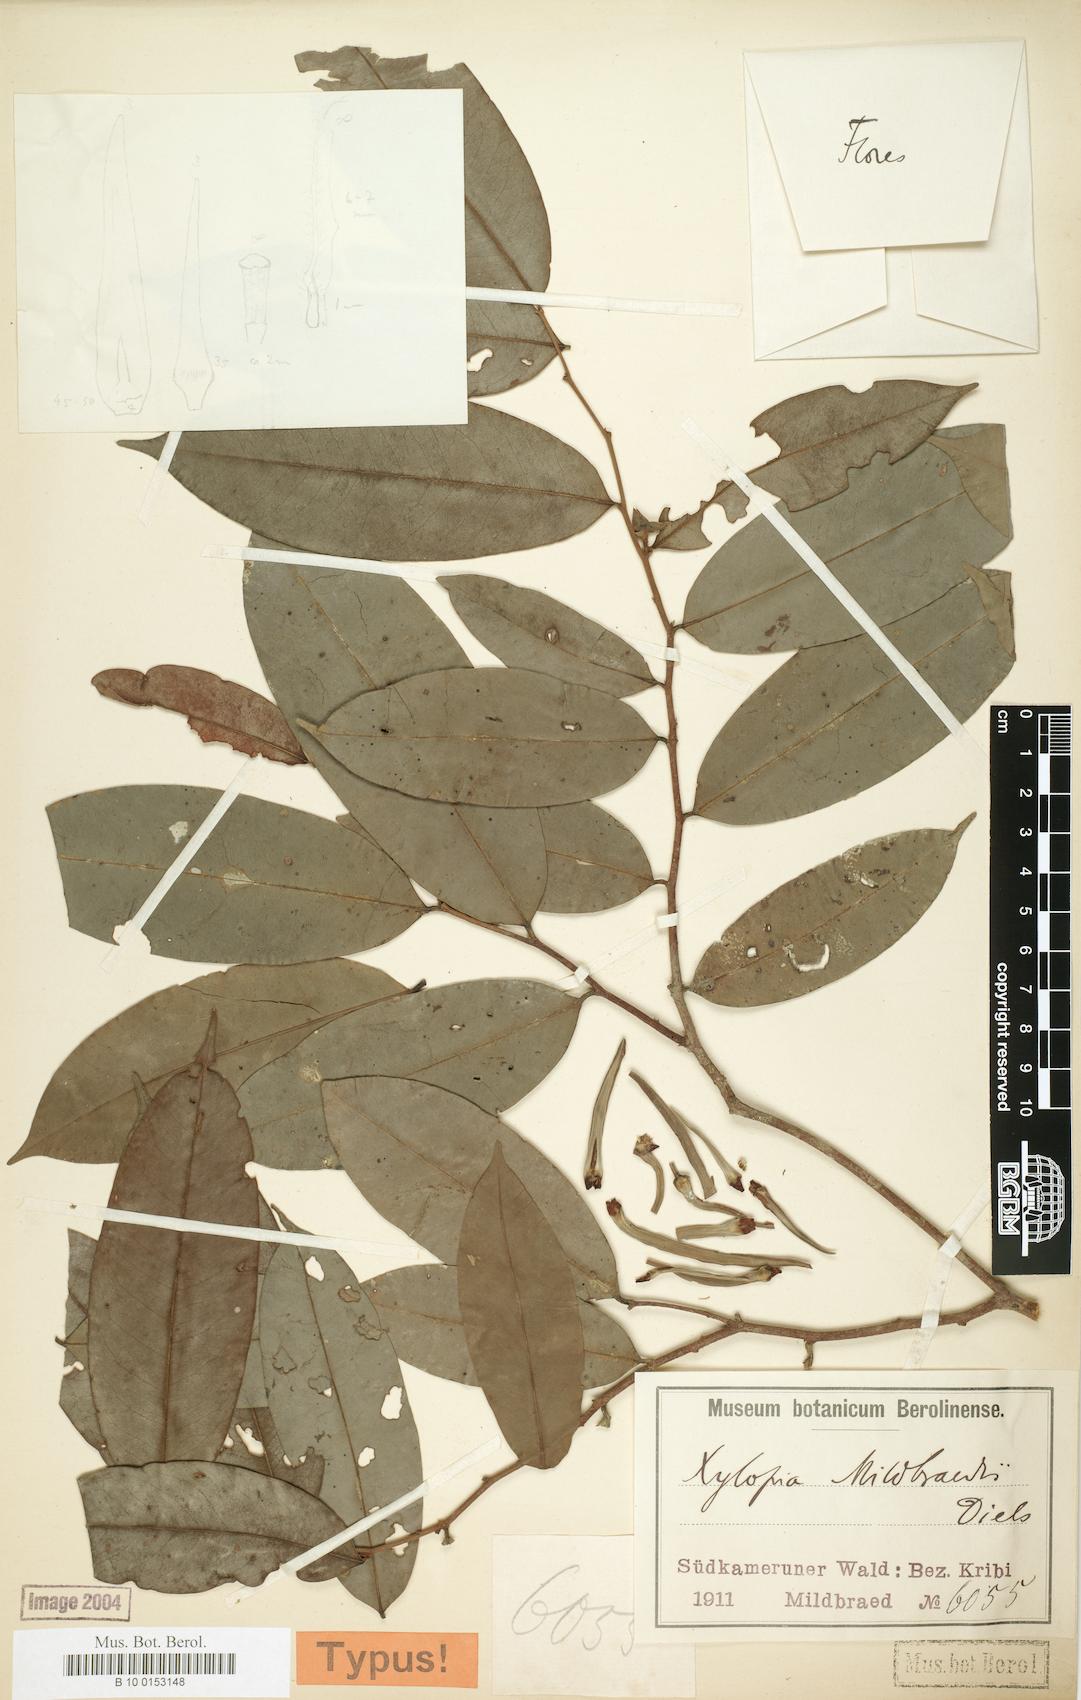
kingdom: Plantae
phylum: Tracheophyta
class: Magnoliopsida
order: Magnoliales
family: Annonaceae
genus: Xylopia
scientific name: Xylopia mildbraedii
